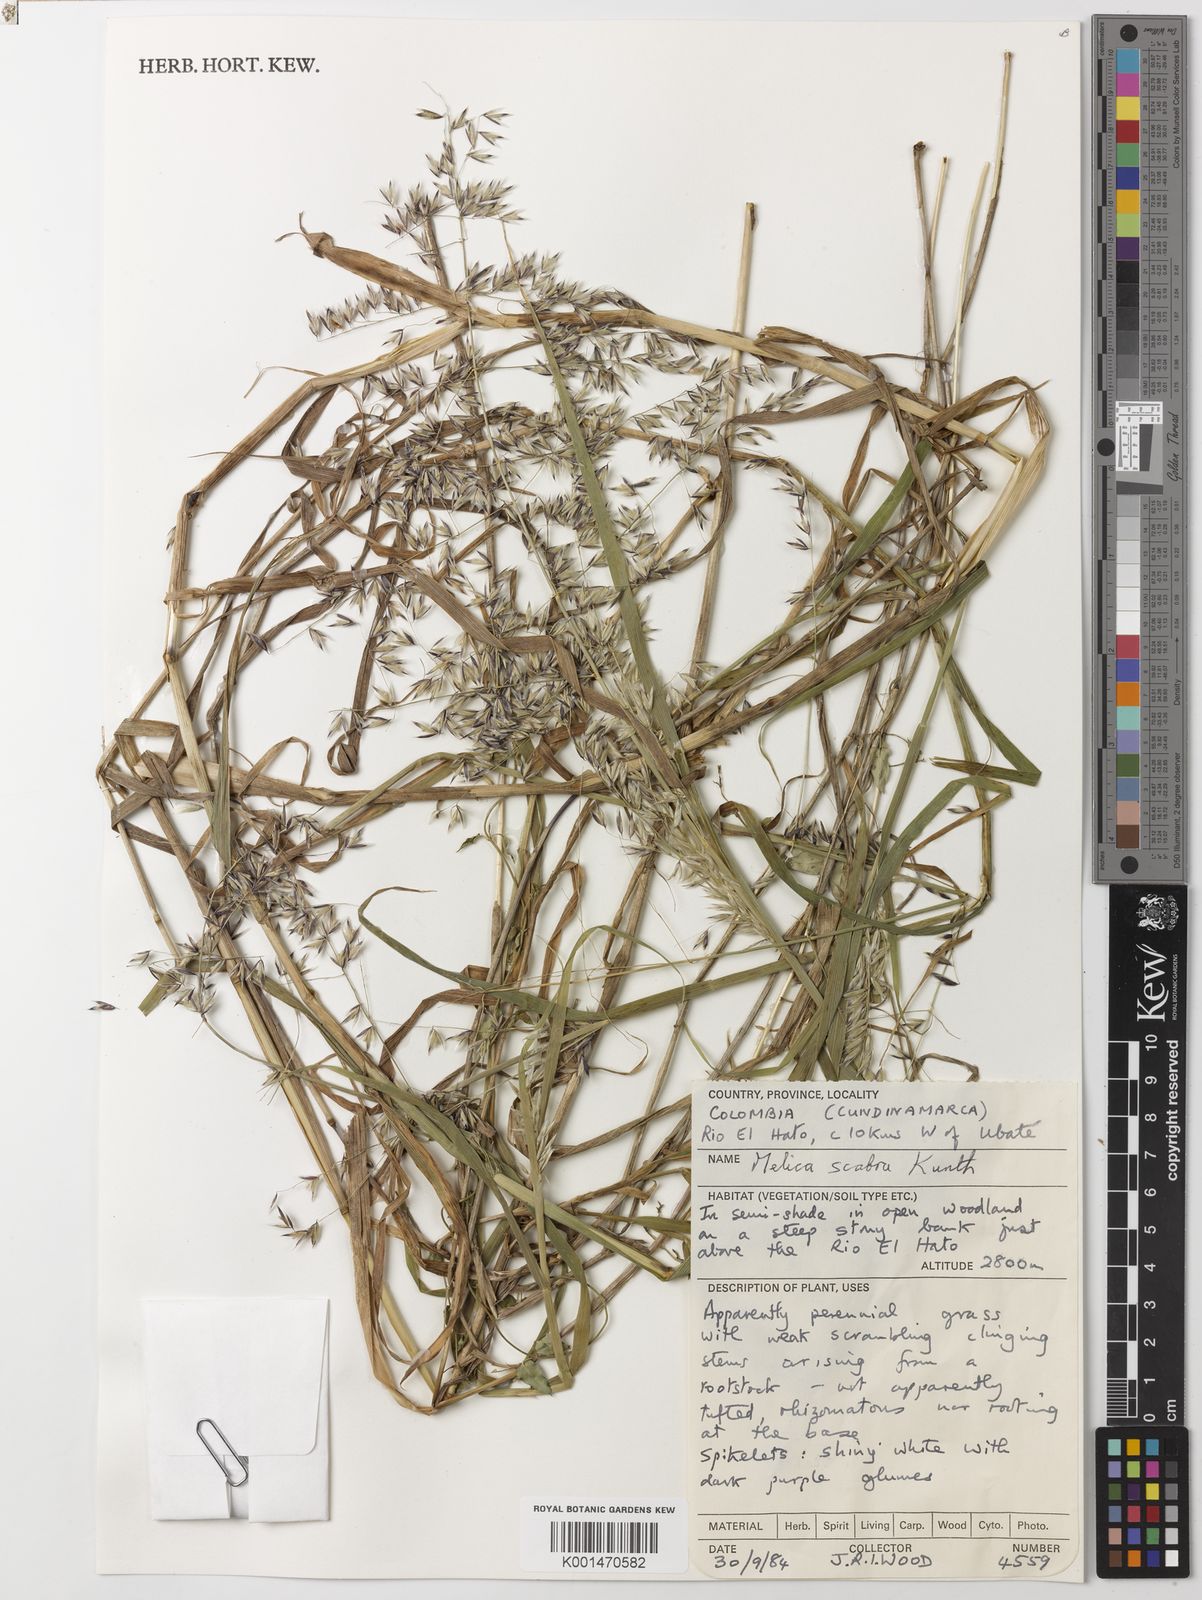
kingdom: Plantae
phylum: Tracheophyta
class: Liliopsida
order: Poales
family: Poaceae
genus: Melica
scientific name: Melica scabra
